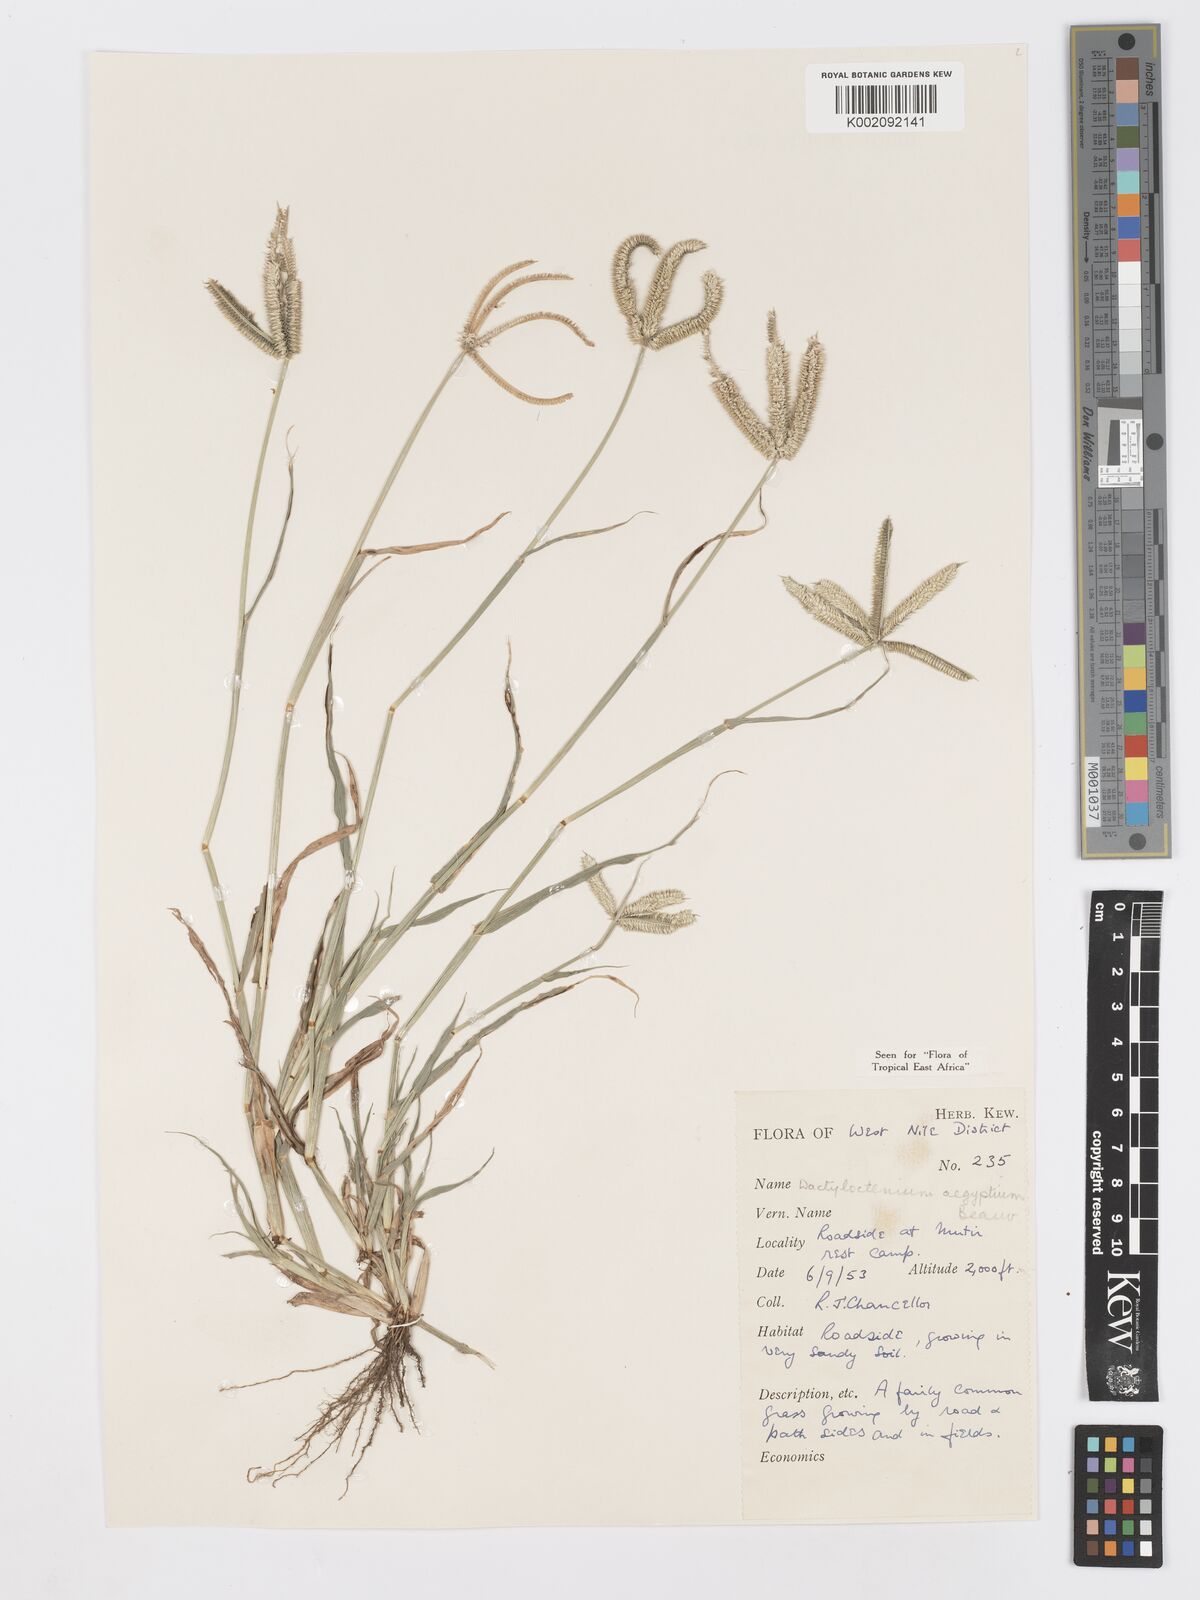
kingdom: Plantae
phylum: Tracheophyta
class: Liliopsida
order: Poales
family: Poaceae
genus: Dactyloctenium
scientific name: Dactyloctenium aegyptium
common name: Egyptian grass
